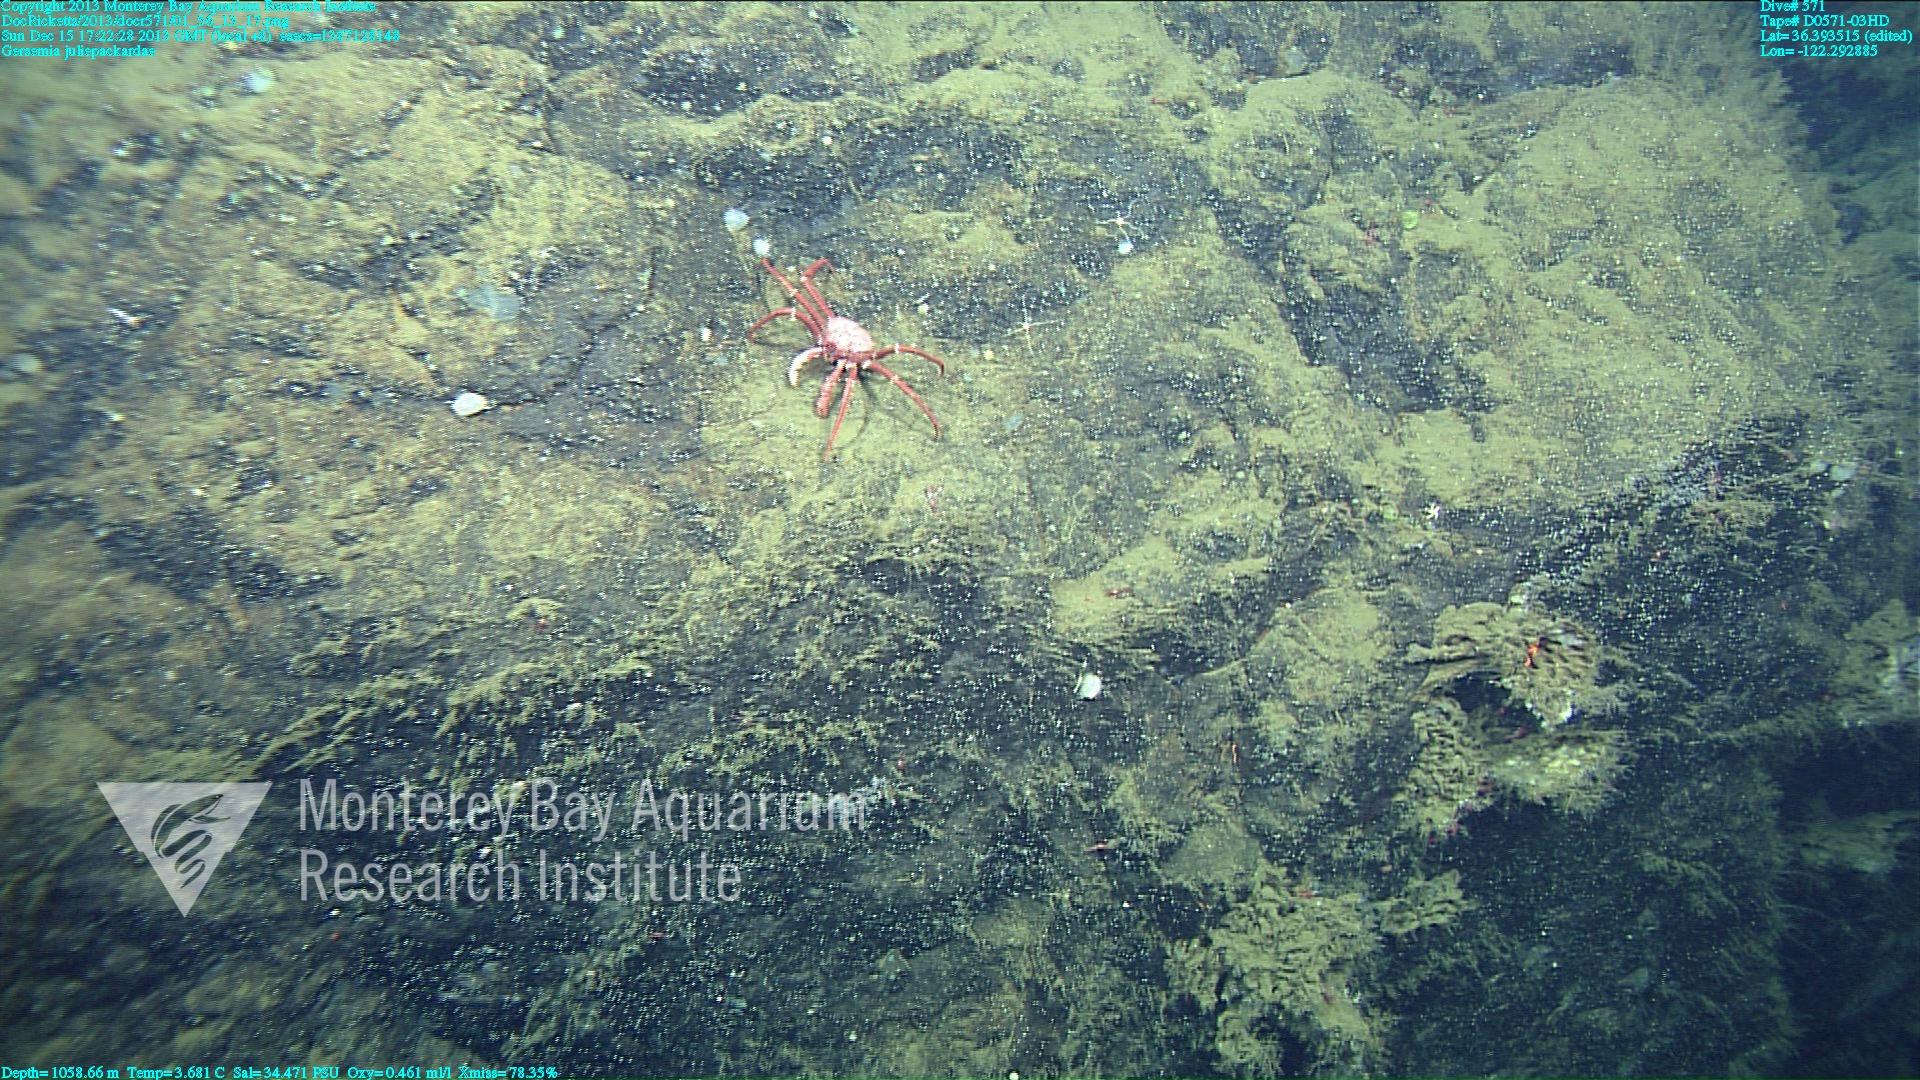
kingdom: Animalia
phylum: Cnidaria
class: Anthozoa
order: Malacalcyonacea
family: Alcyoniidae
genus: Gersemia
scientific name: Gersemia juliepackardae
